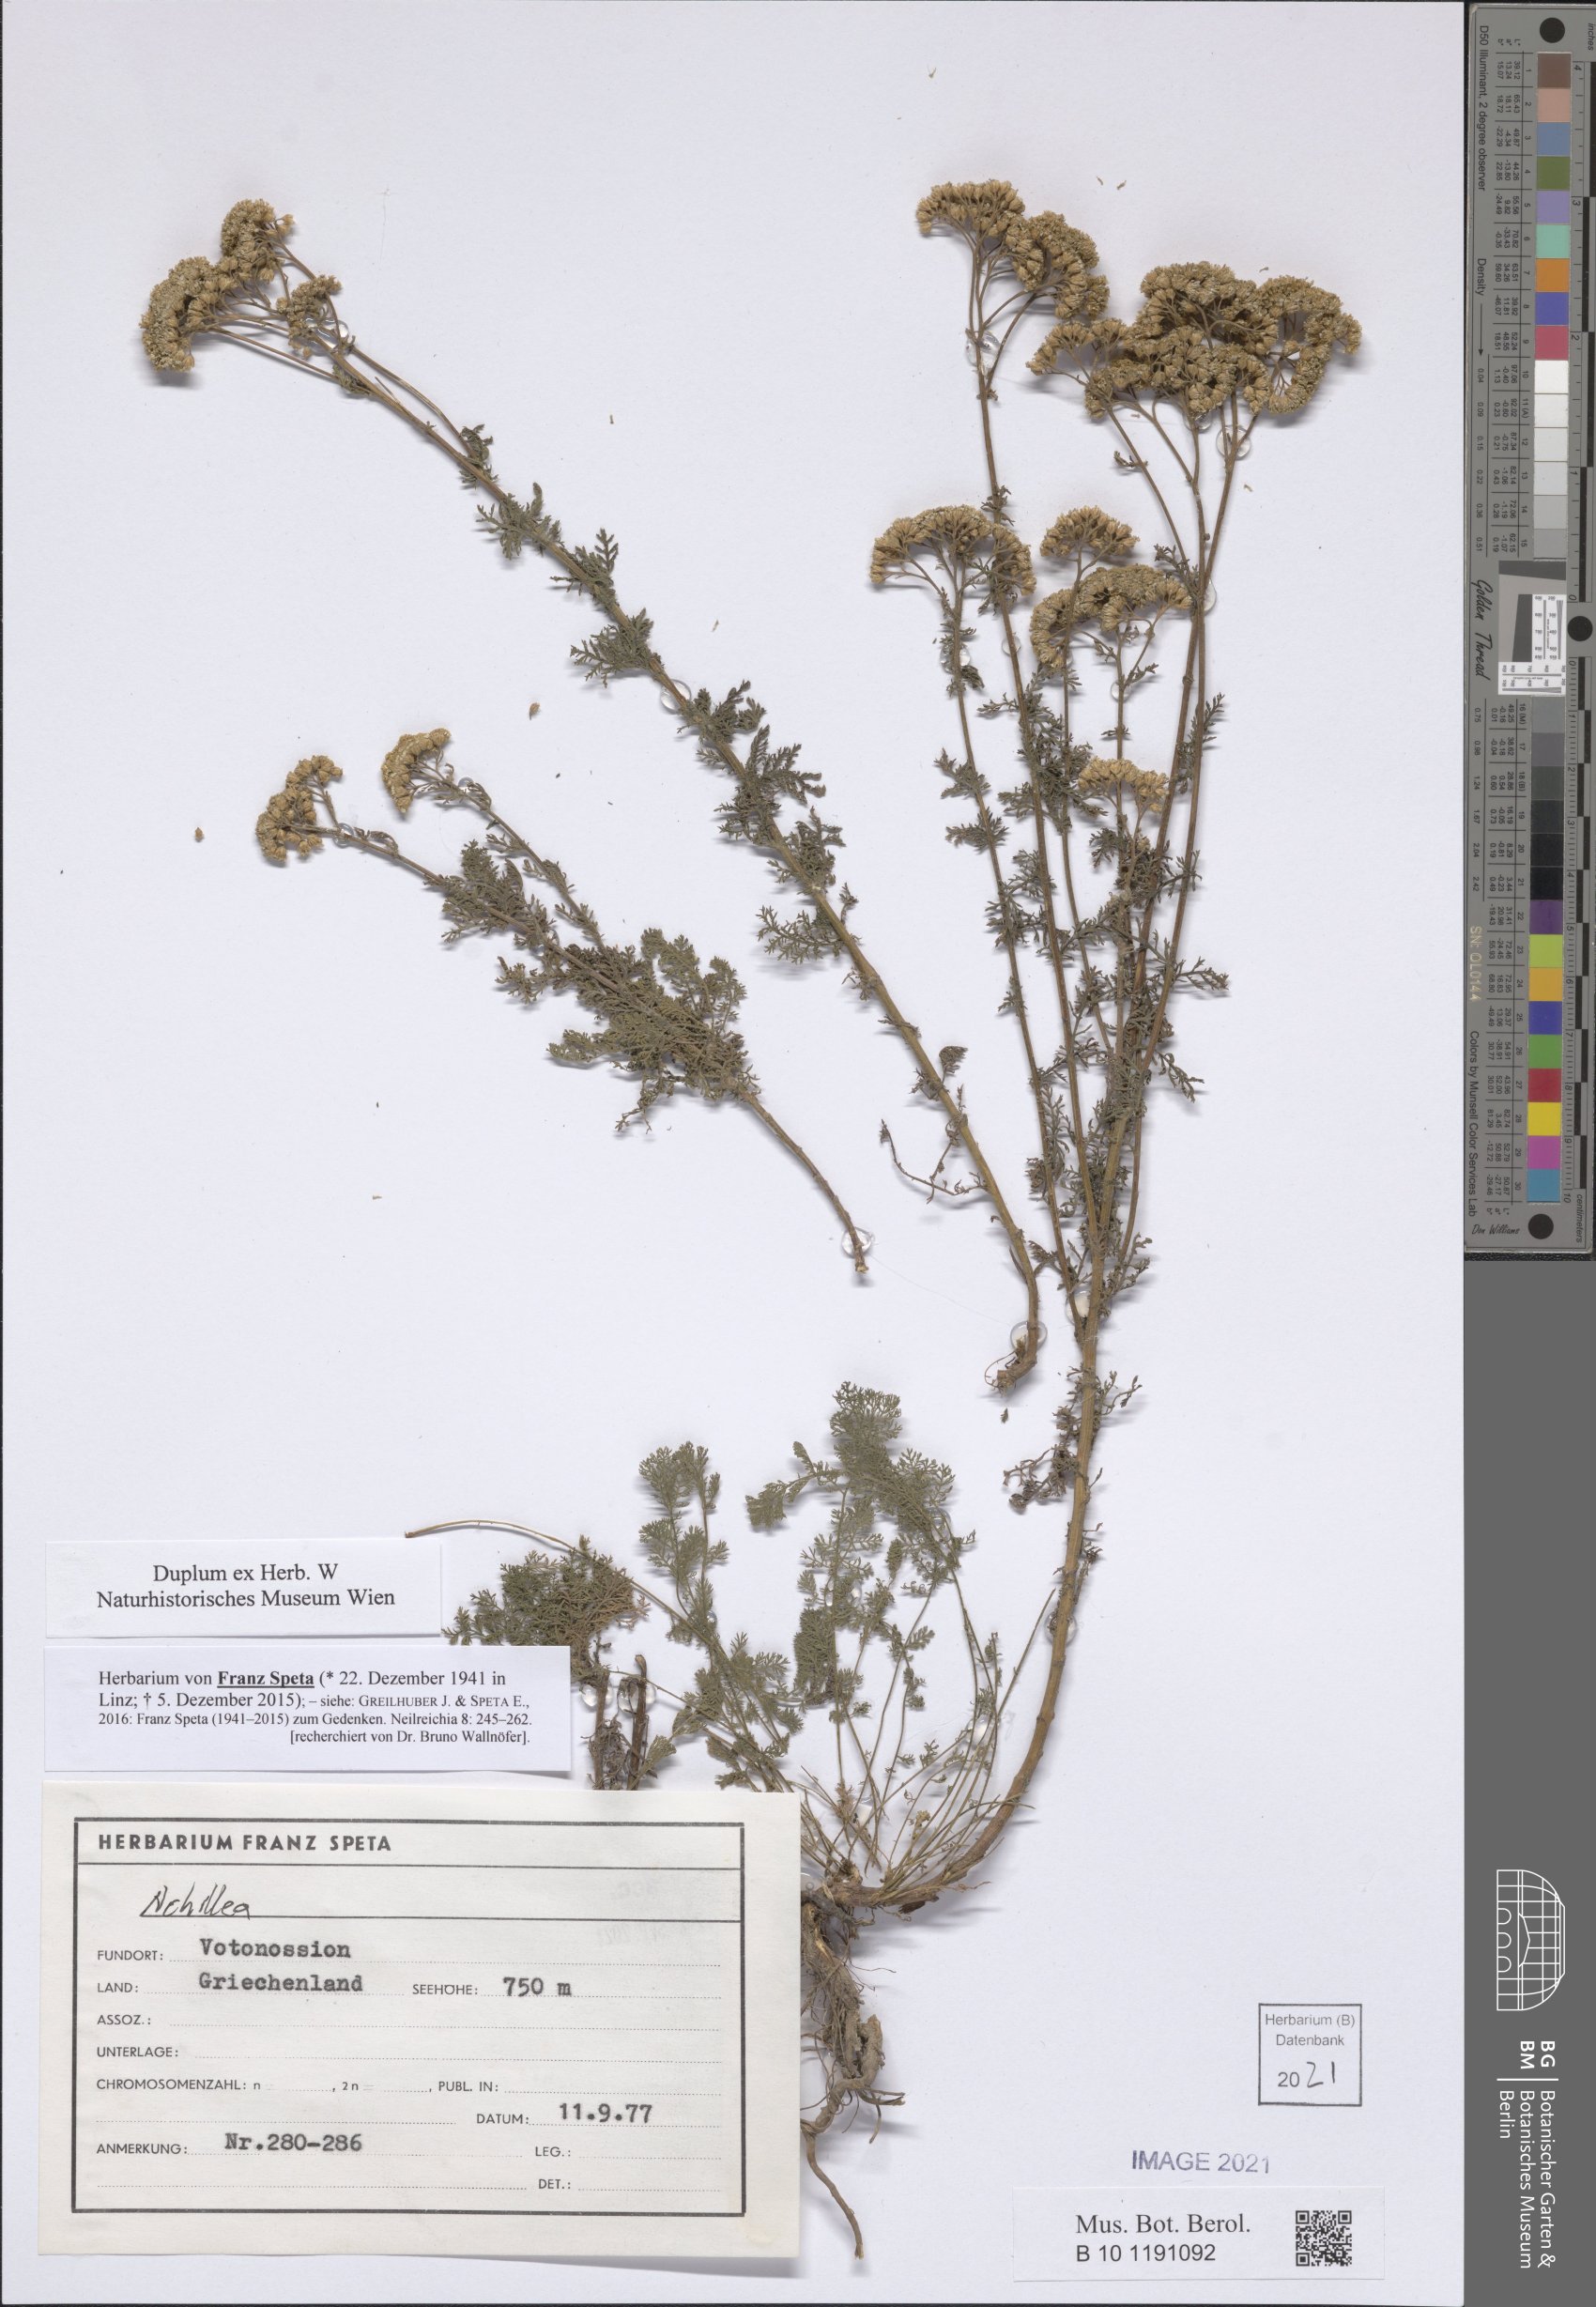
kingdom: Plantae
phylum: Tracheophyta
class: Magnoliopsida
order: Asterales
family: Asteraceae
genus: Achillea
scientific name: Achillea
